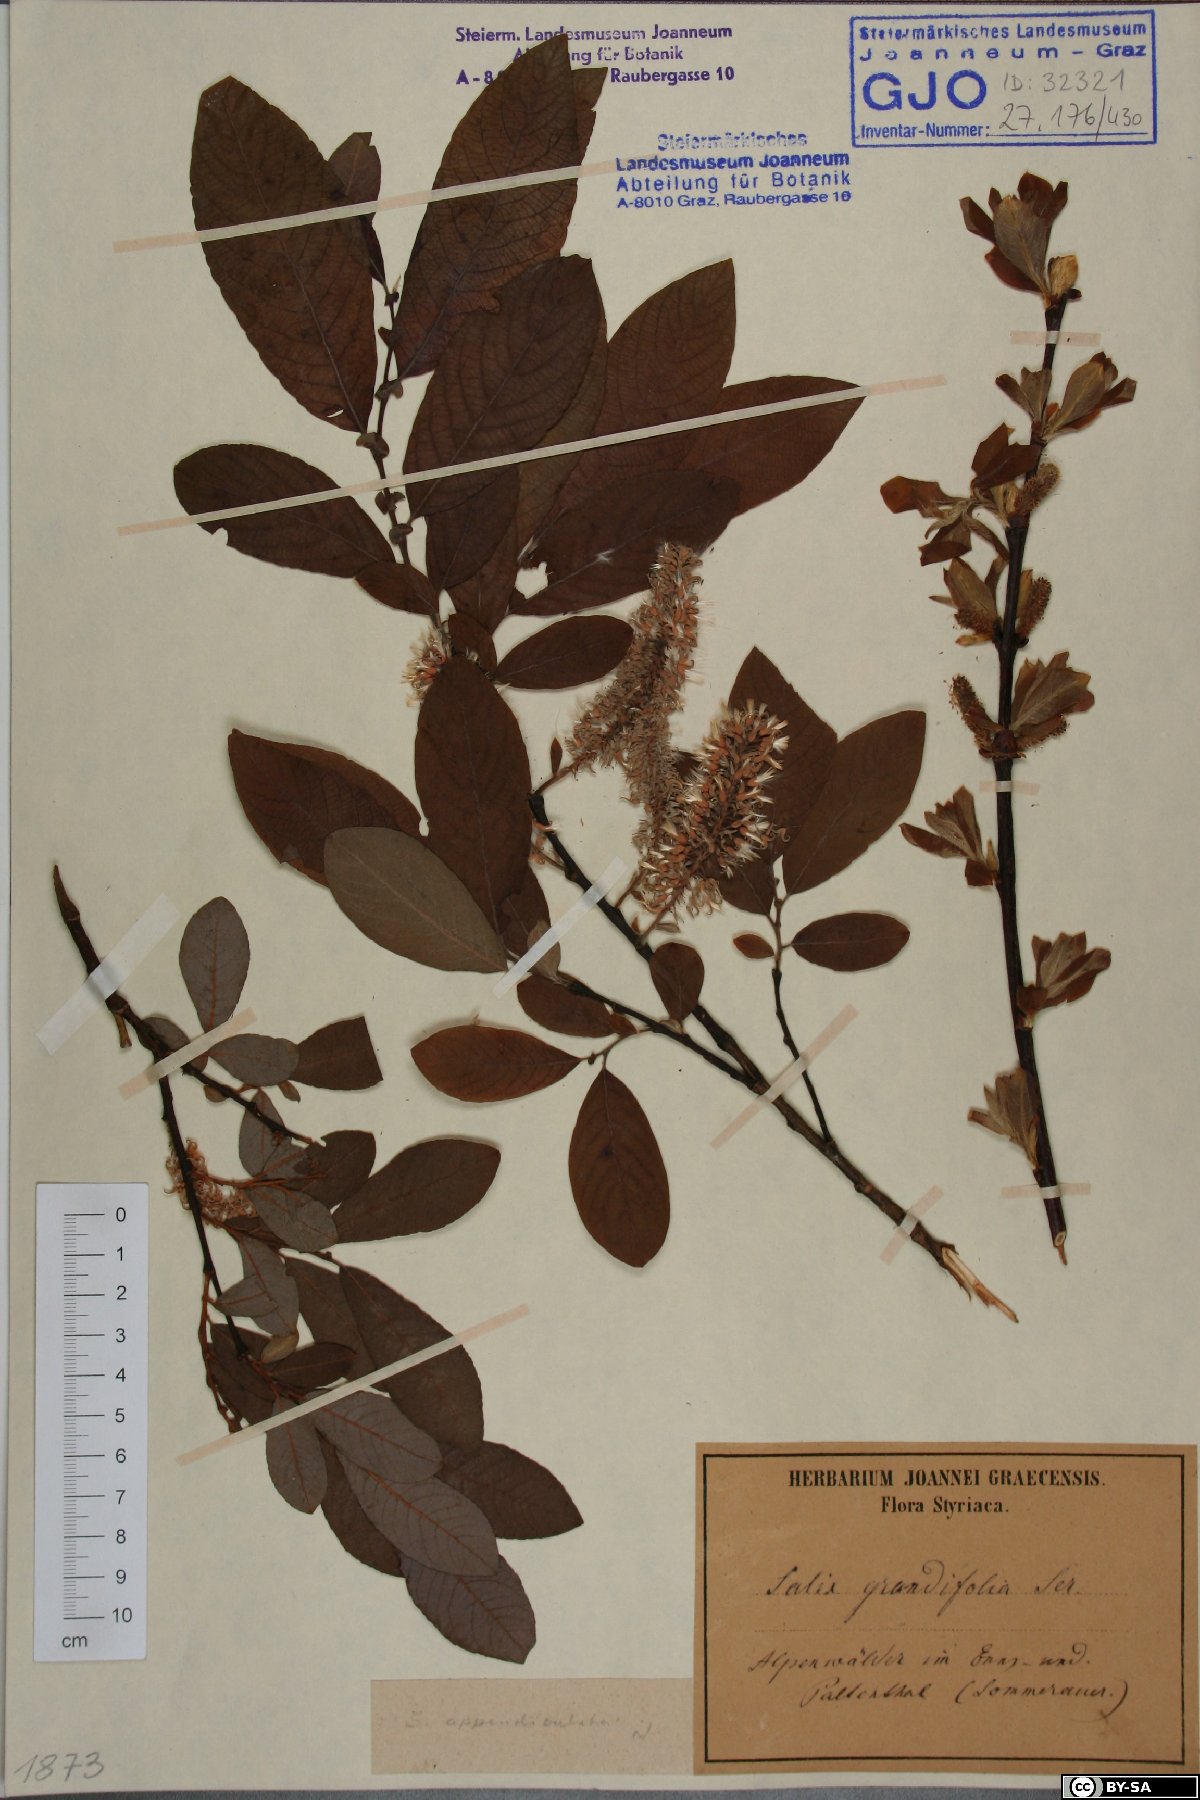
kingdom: Plantae
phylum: Tracheophyta
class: Magnoliopsida
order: Malpighiales
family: Salicaceae
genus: Salix
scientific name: Salix appendiculata
